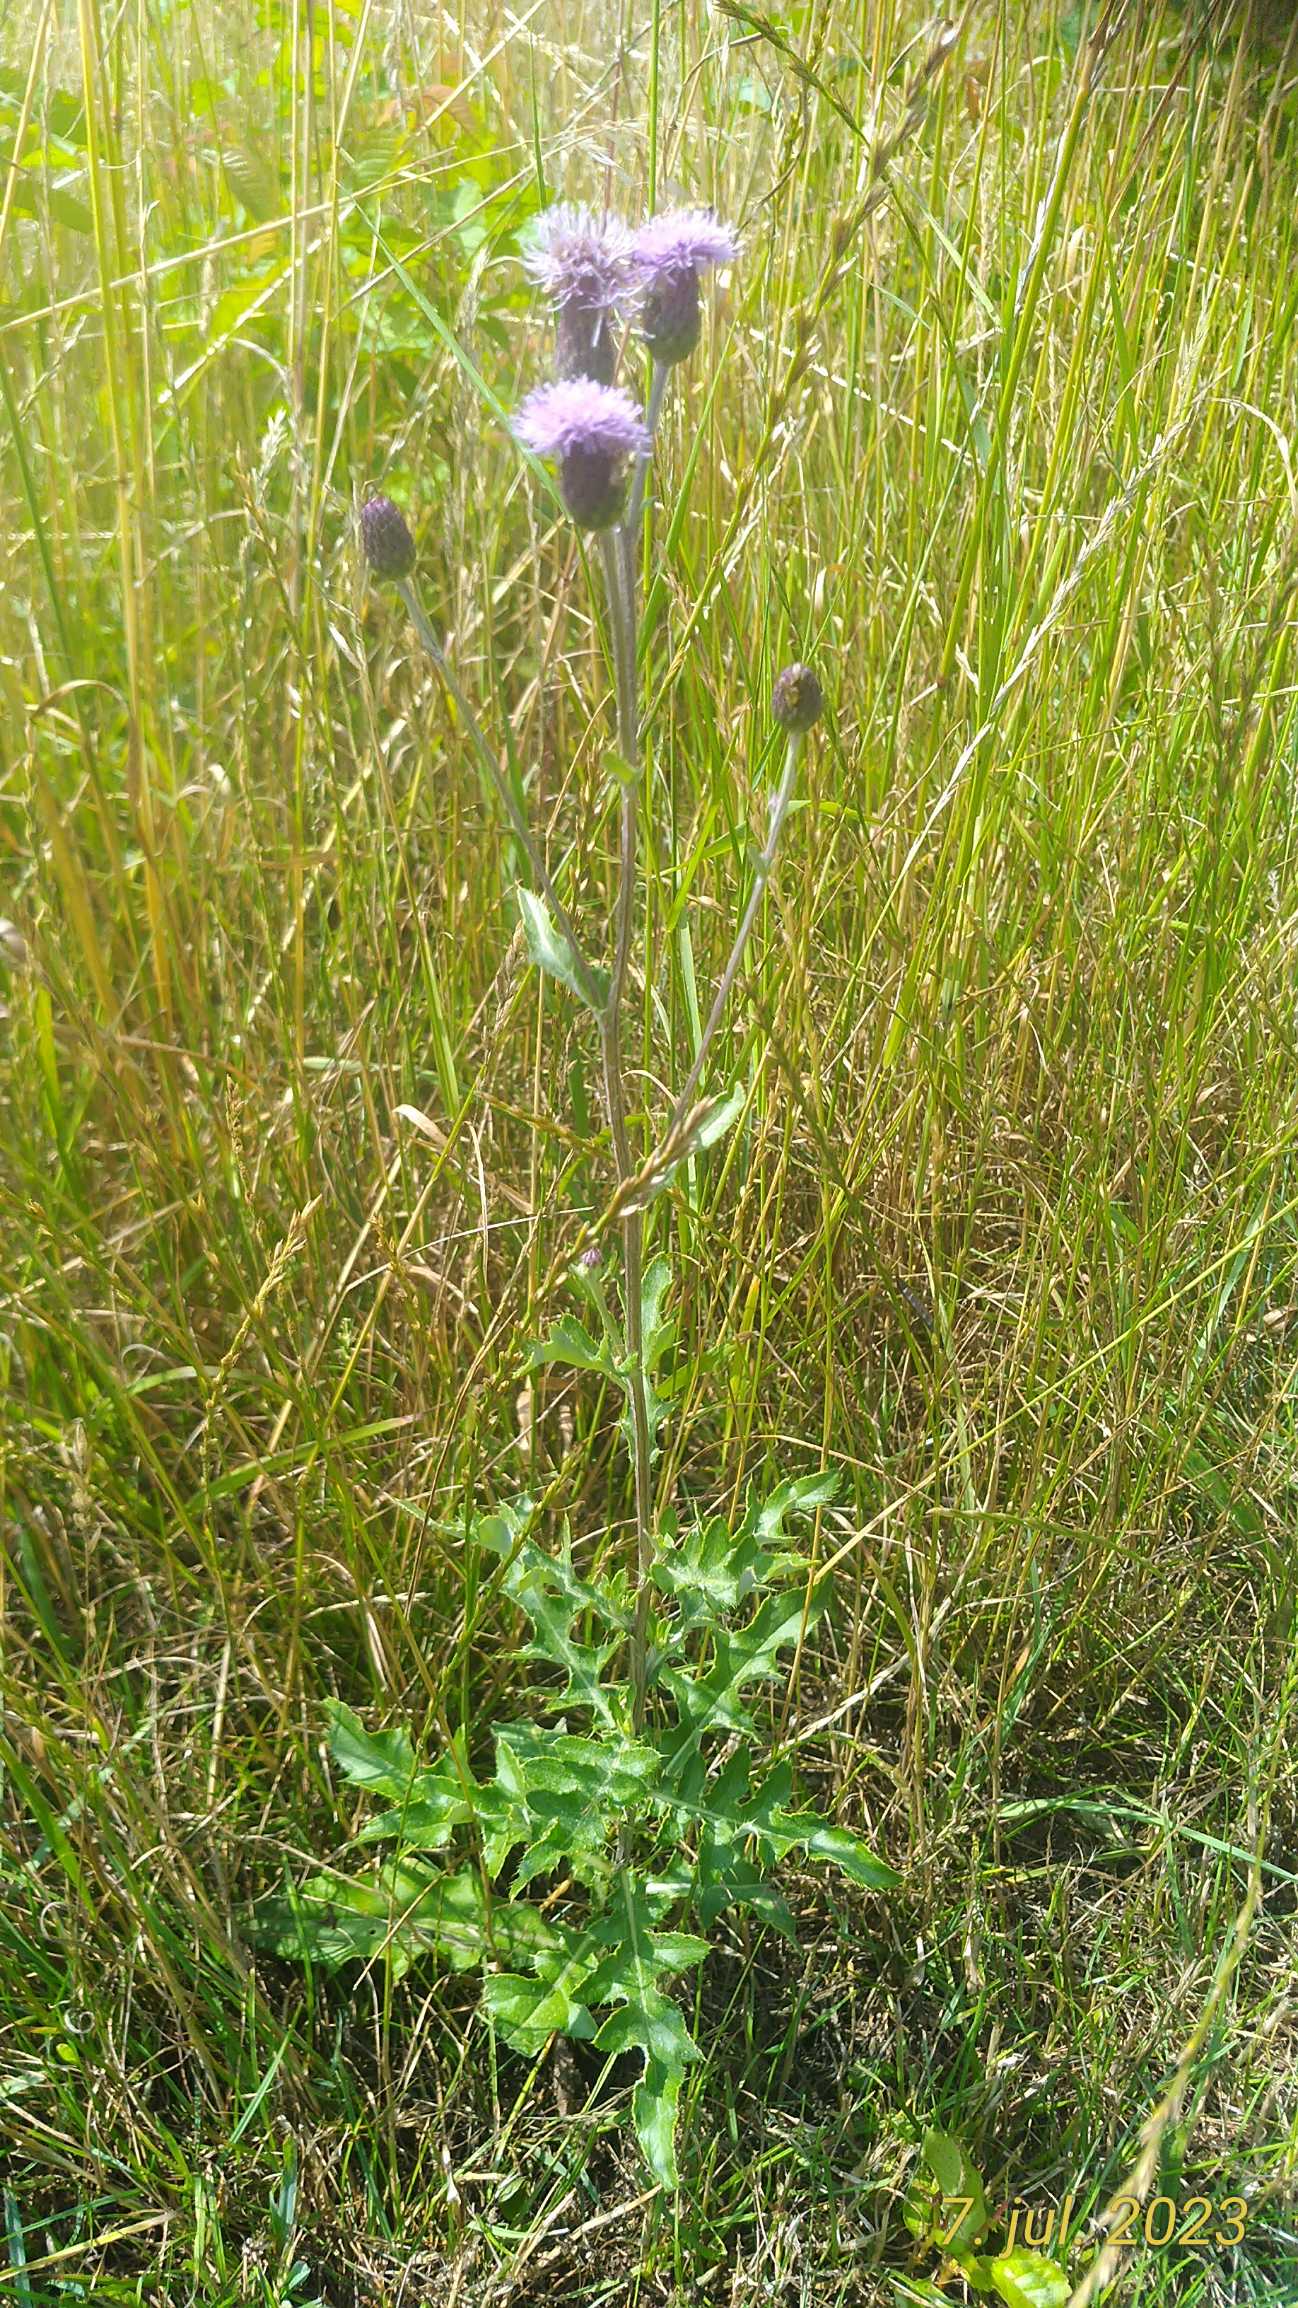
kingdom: Plantae
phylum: Tracheophyta
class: Magnoliopsida
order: Asterales
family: Asteraceae
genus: Cirsium
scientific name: Cirsium arvense
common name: Ager-tidsel
